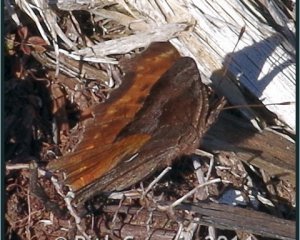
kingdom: Animalia
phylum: Arthropoda
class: Insecta
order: Lepidoptera
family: Nymphalidae
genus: Polygonia
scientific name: Polygonia gracilis
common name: Hoary Comma
